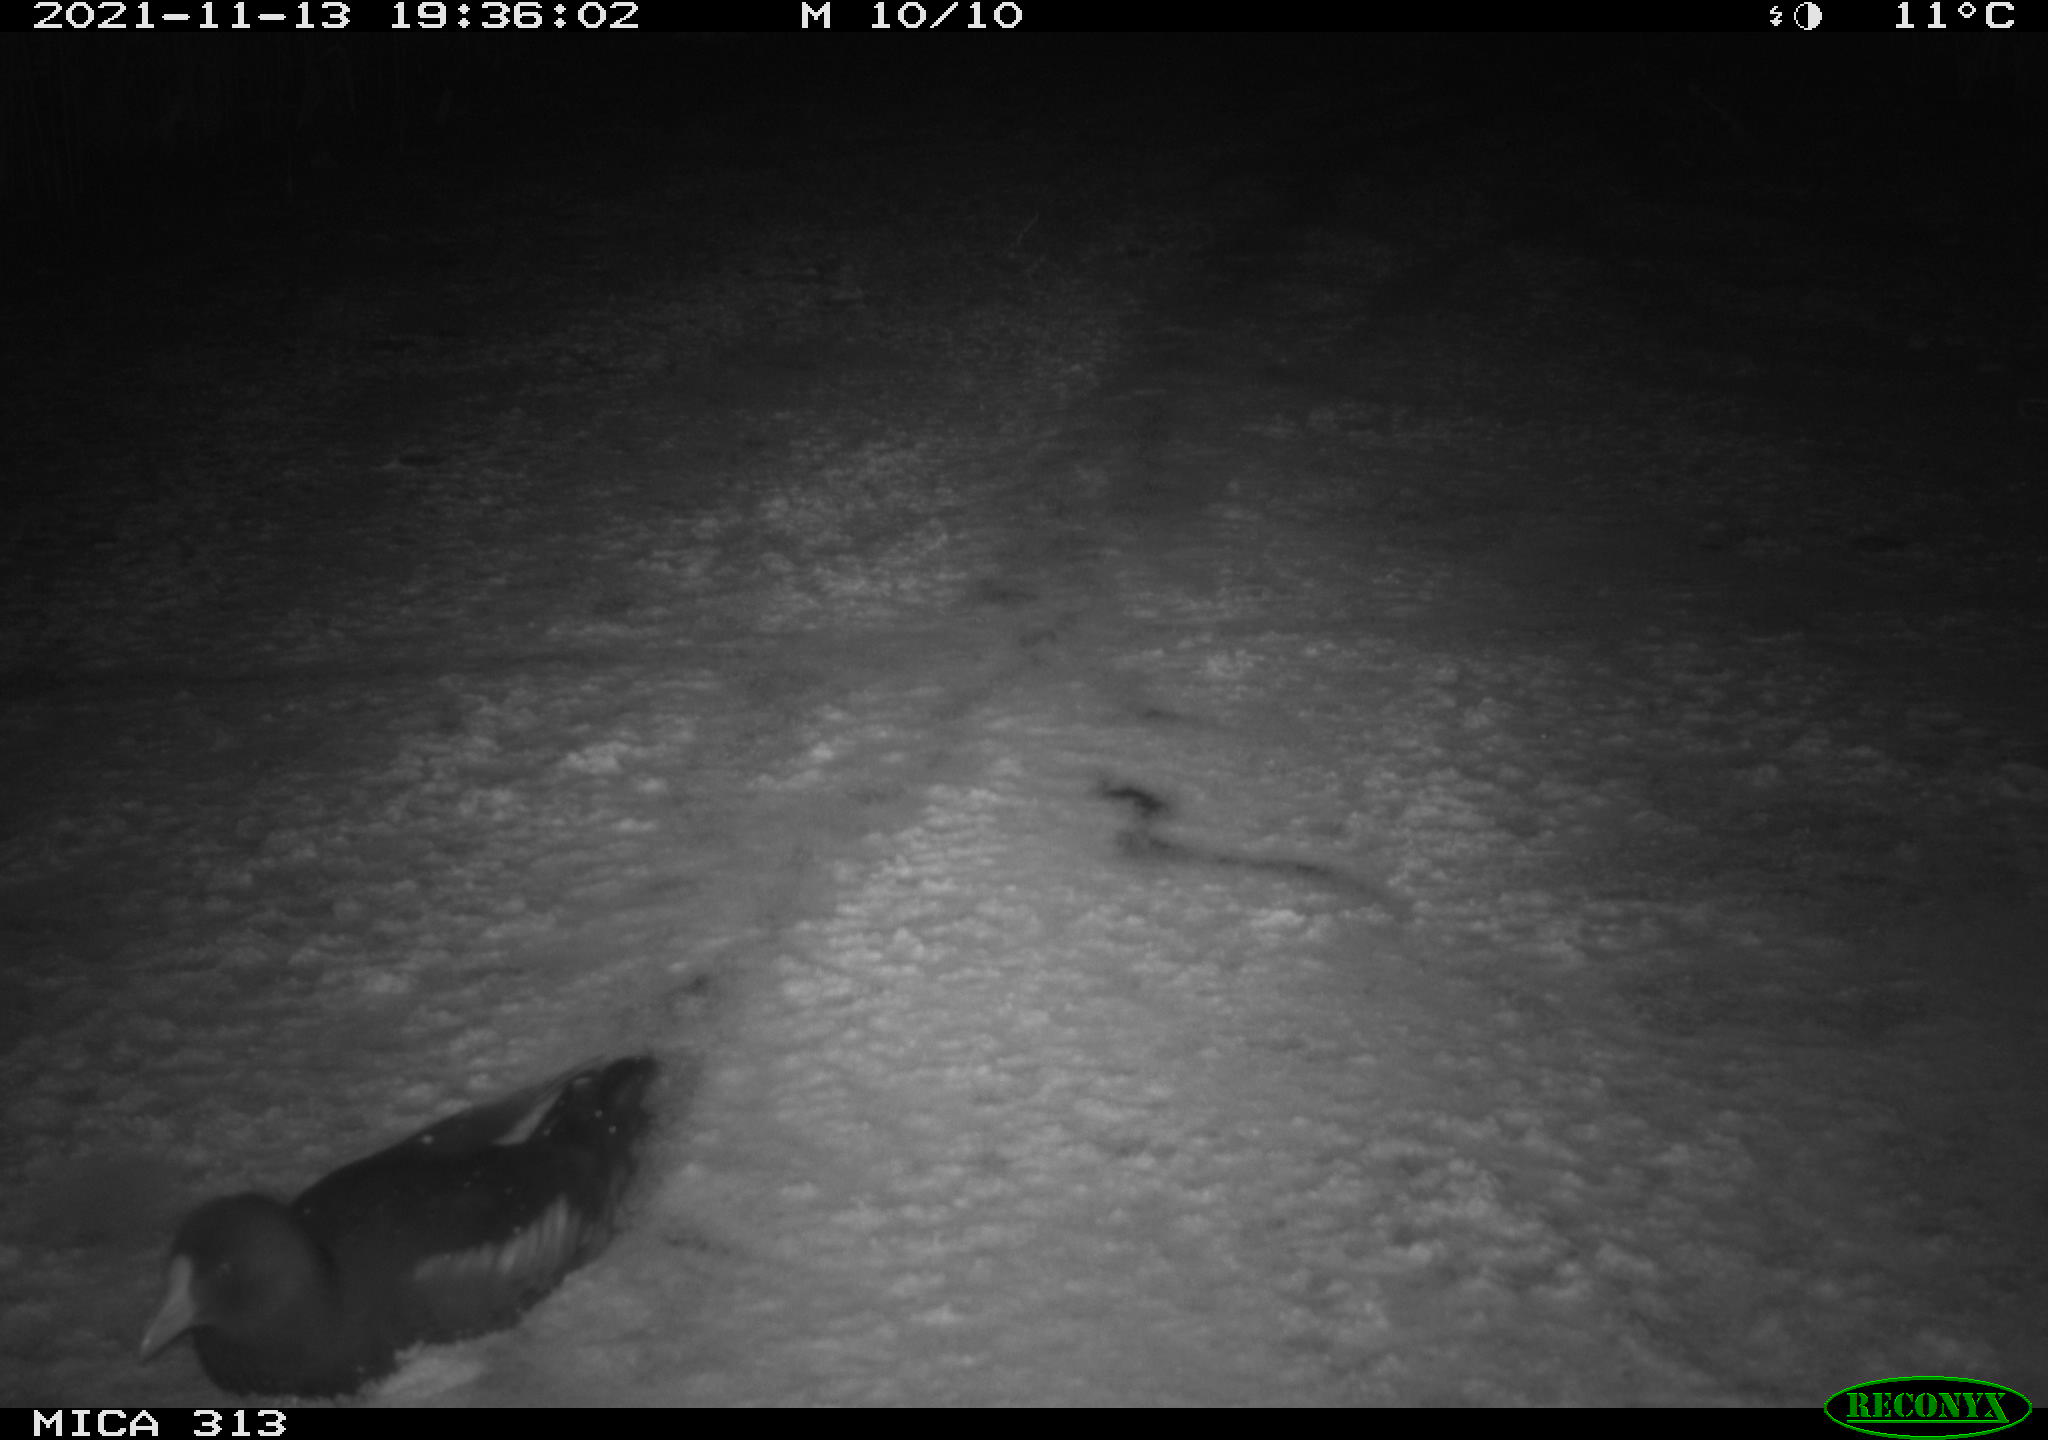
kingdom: Animalia
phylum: Chordata
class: Aves
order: Gruiformes
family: Rallidae
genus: Fulica
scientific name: Fulica atra
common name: Eurasian coot
